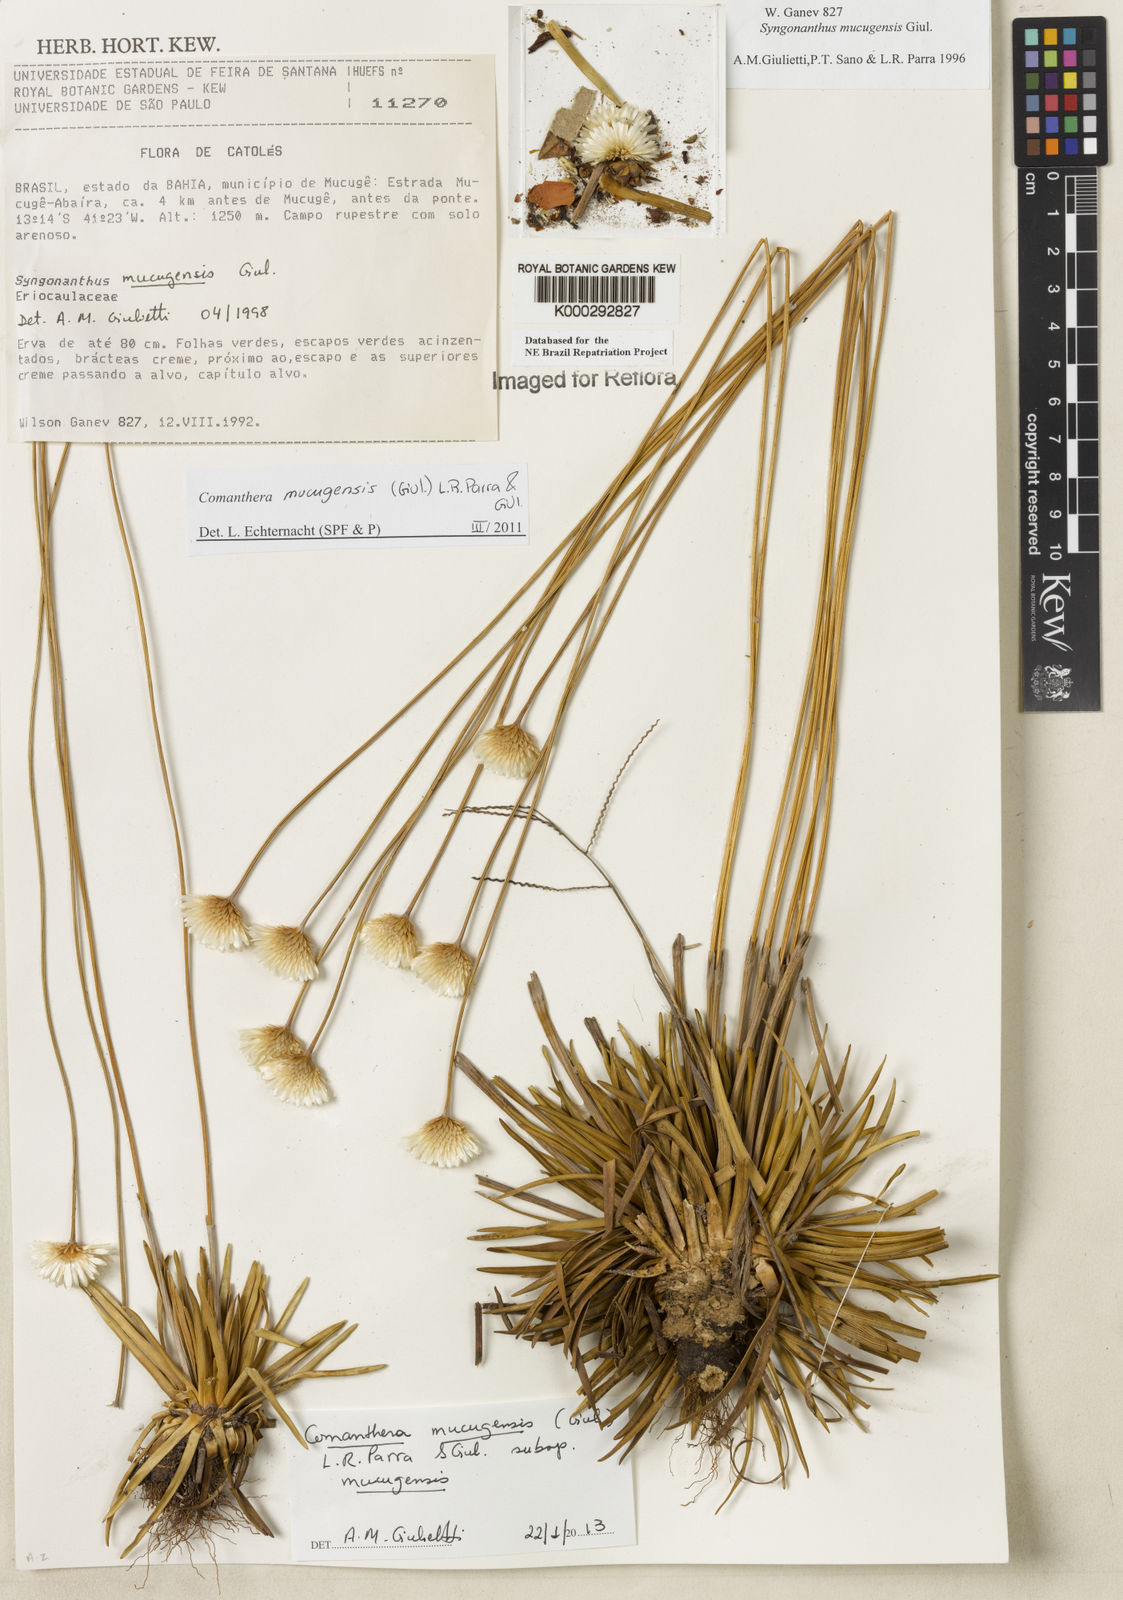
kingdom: Plantae
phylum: Tracheophyta
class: Liliopsida
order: Poales
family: Eriocaulaceae
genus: Comanthera
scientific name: Comanthera mucugensis
